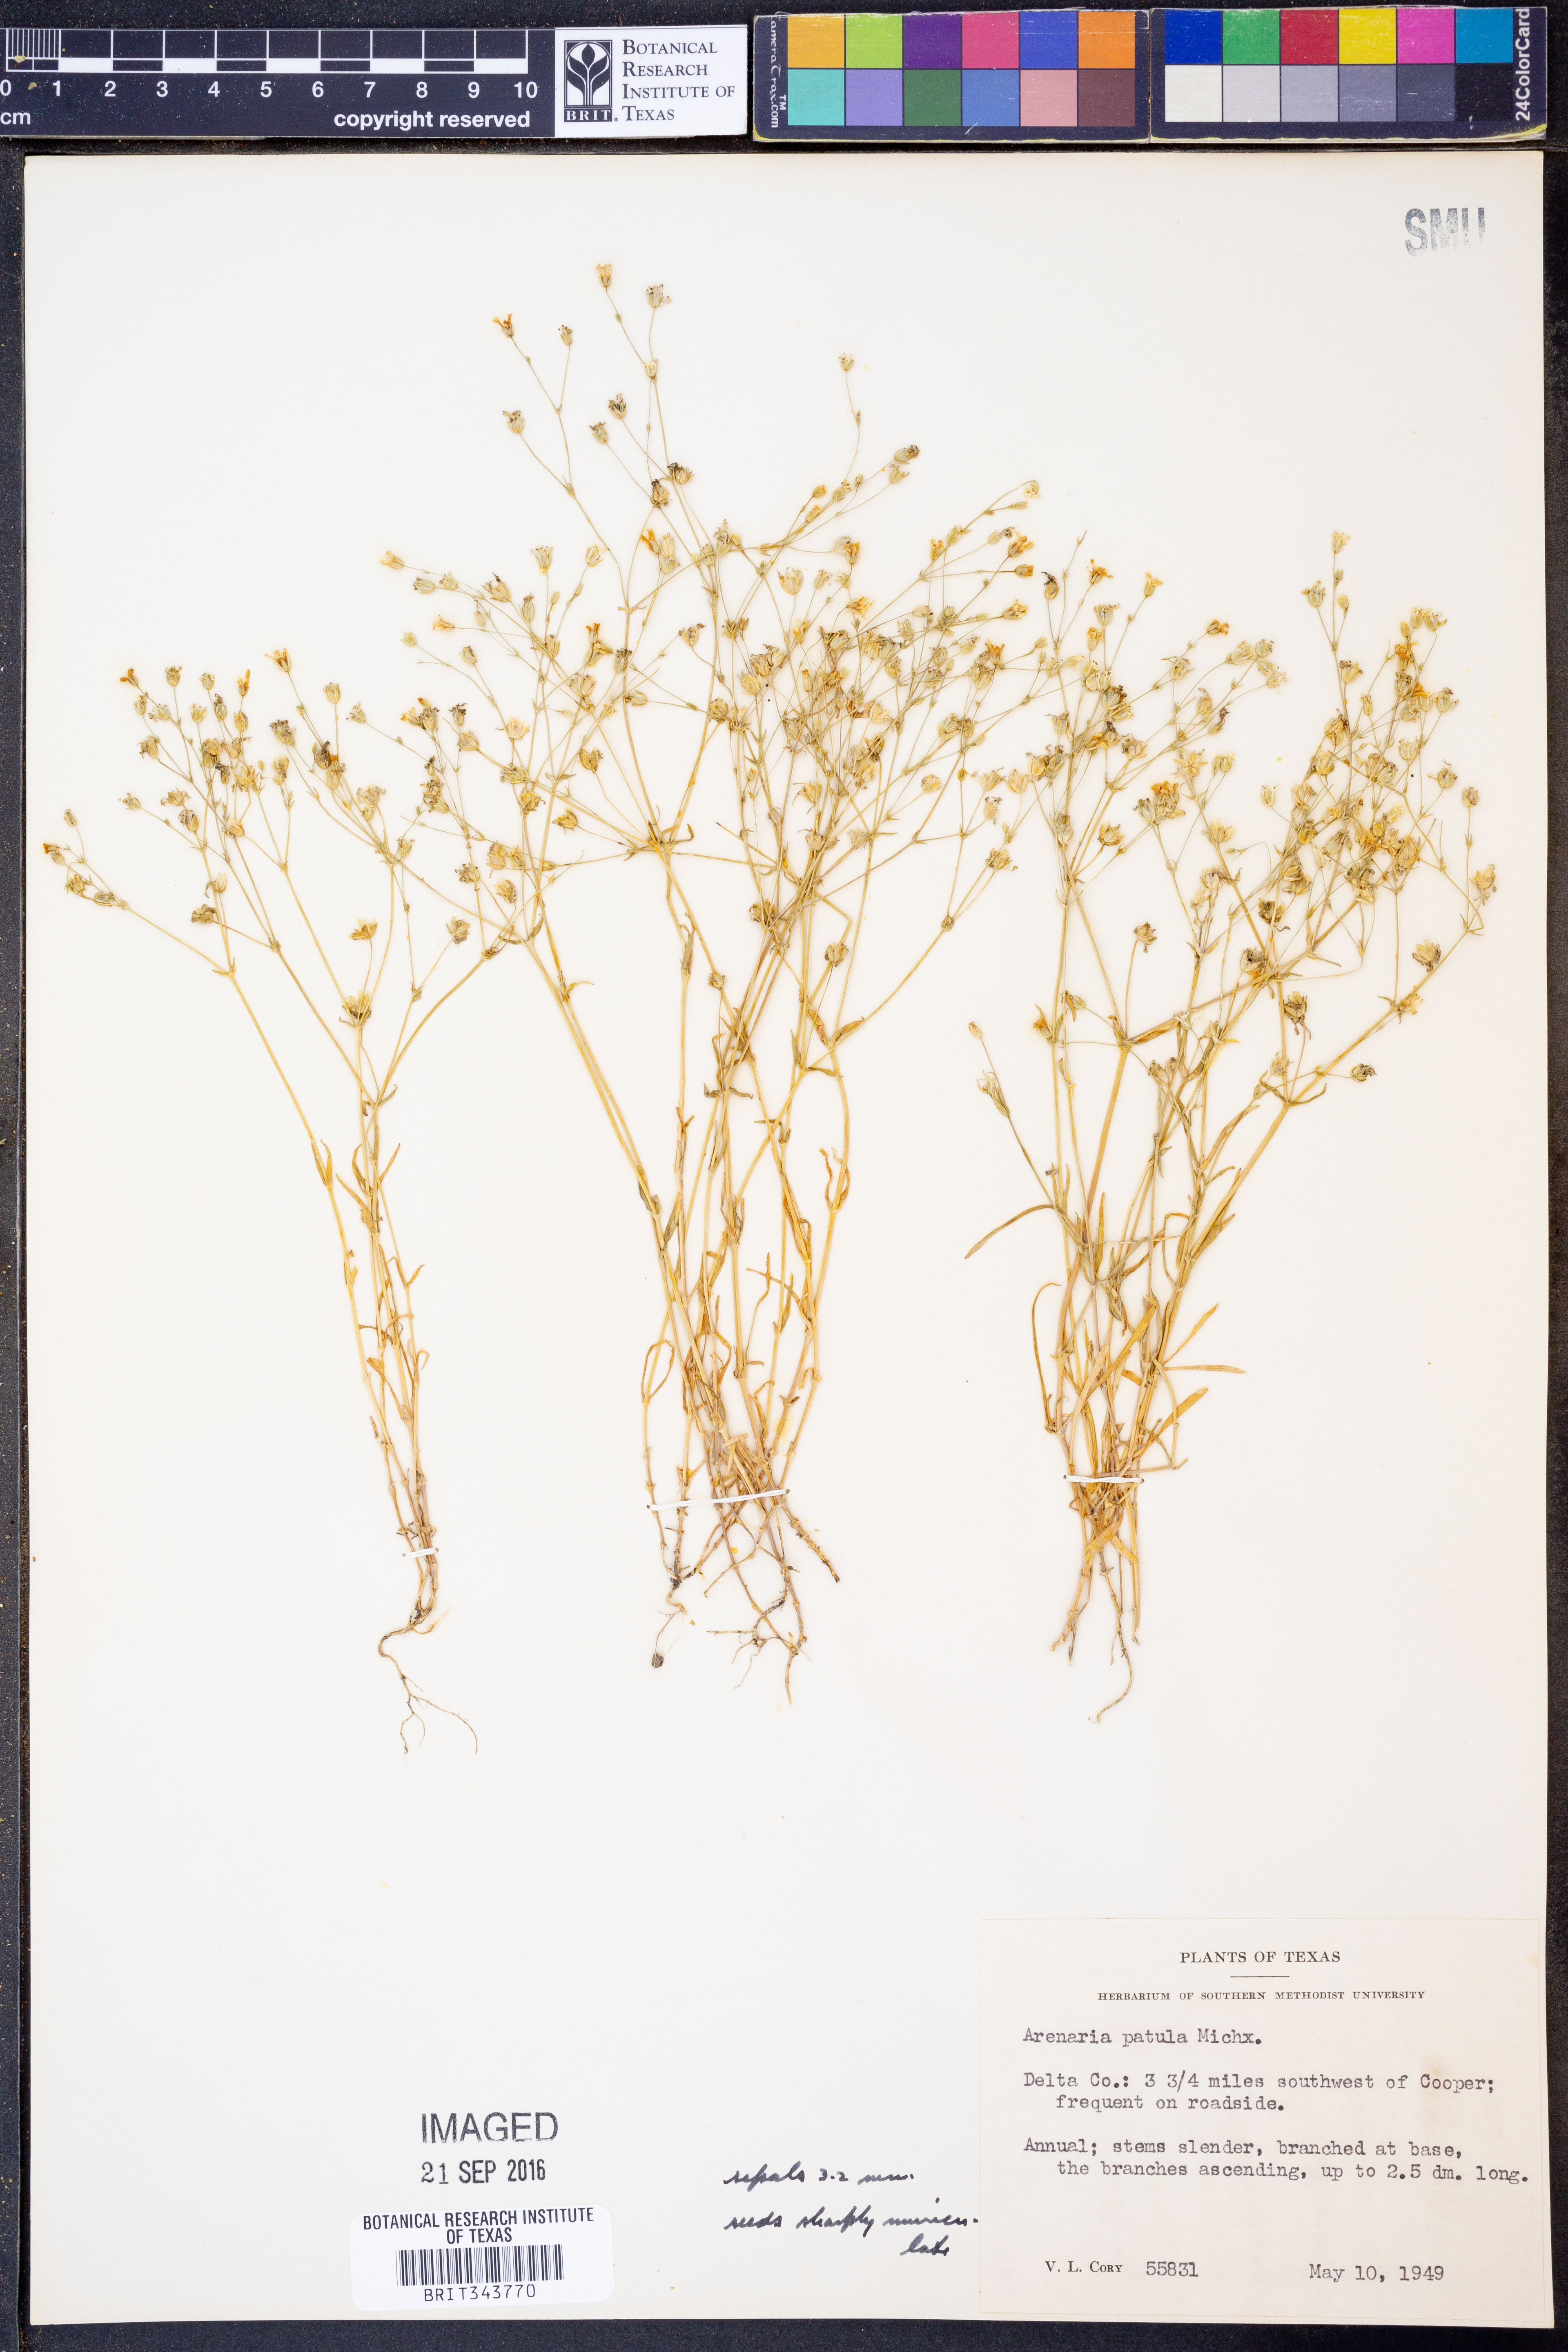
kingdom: Plantae
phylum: Tracheophyta
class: Magnoliopsida
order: Caryophyllales
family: Caryophyllaceae
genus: Mononeuria
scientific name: Mononeuria patula
